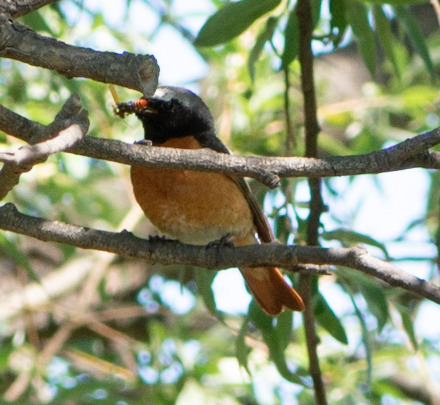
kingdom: Animalia
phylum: Chordata
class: Aves
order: Passeriformes
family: Muscicapidae
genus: Phoenicurus
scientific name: Phoenicurus phoenicurus
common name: Rødstjert
